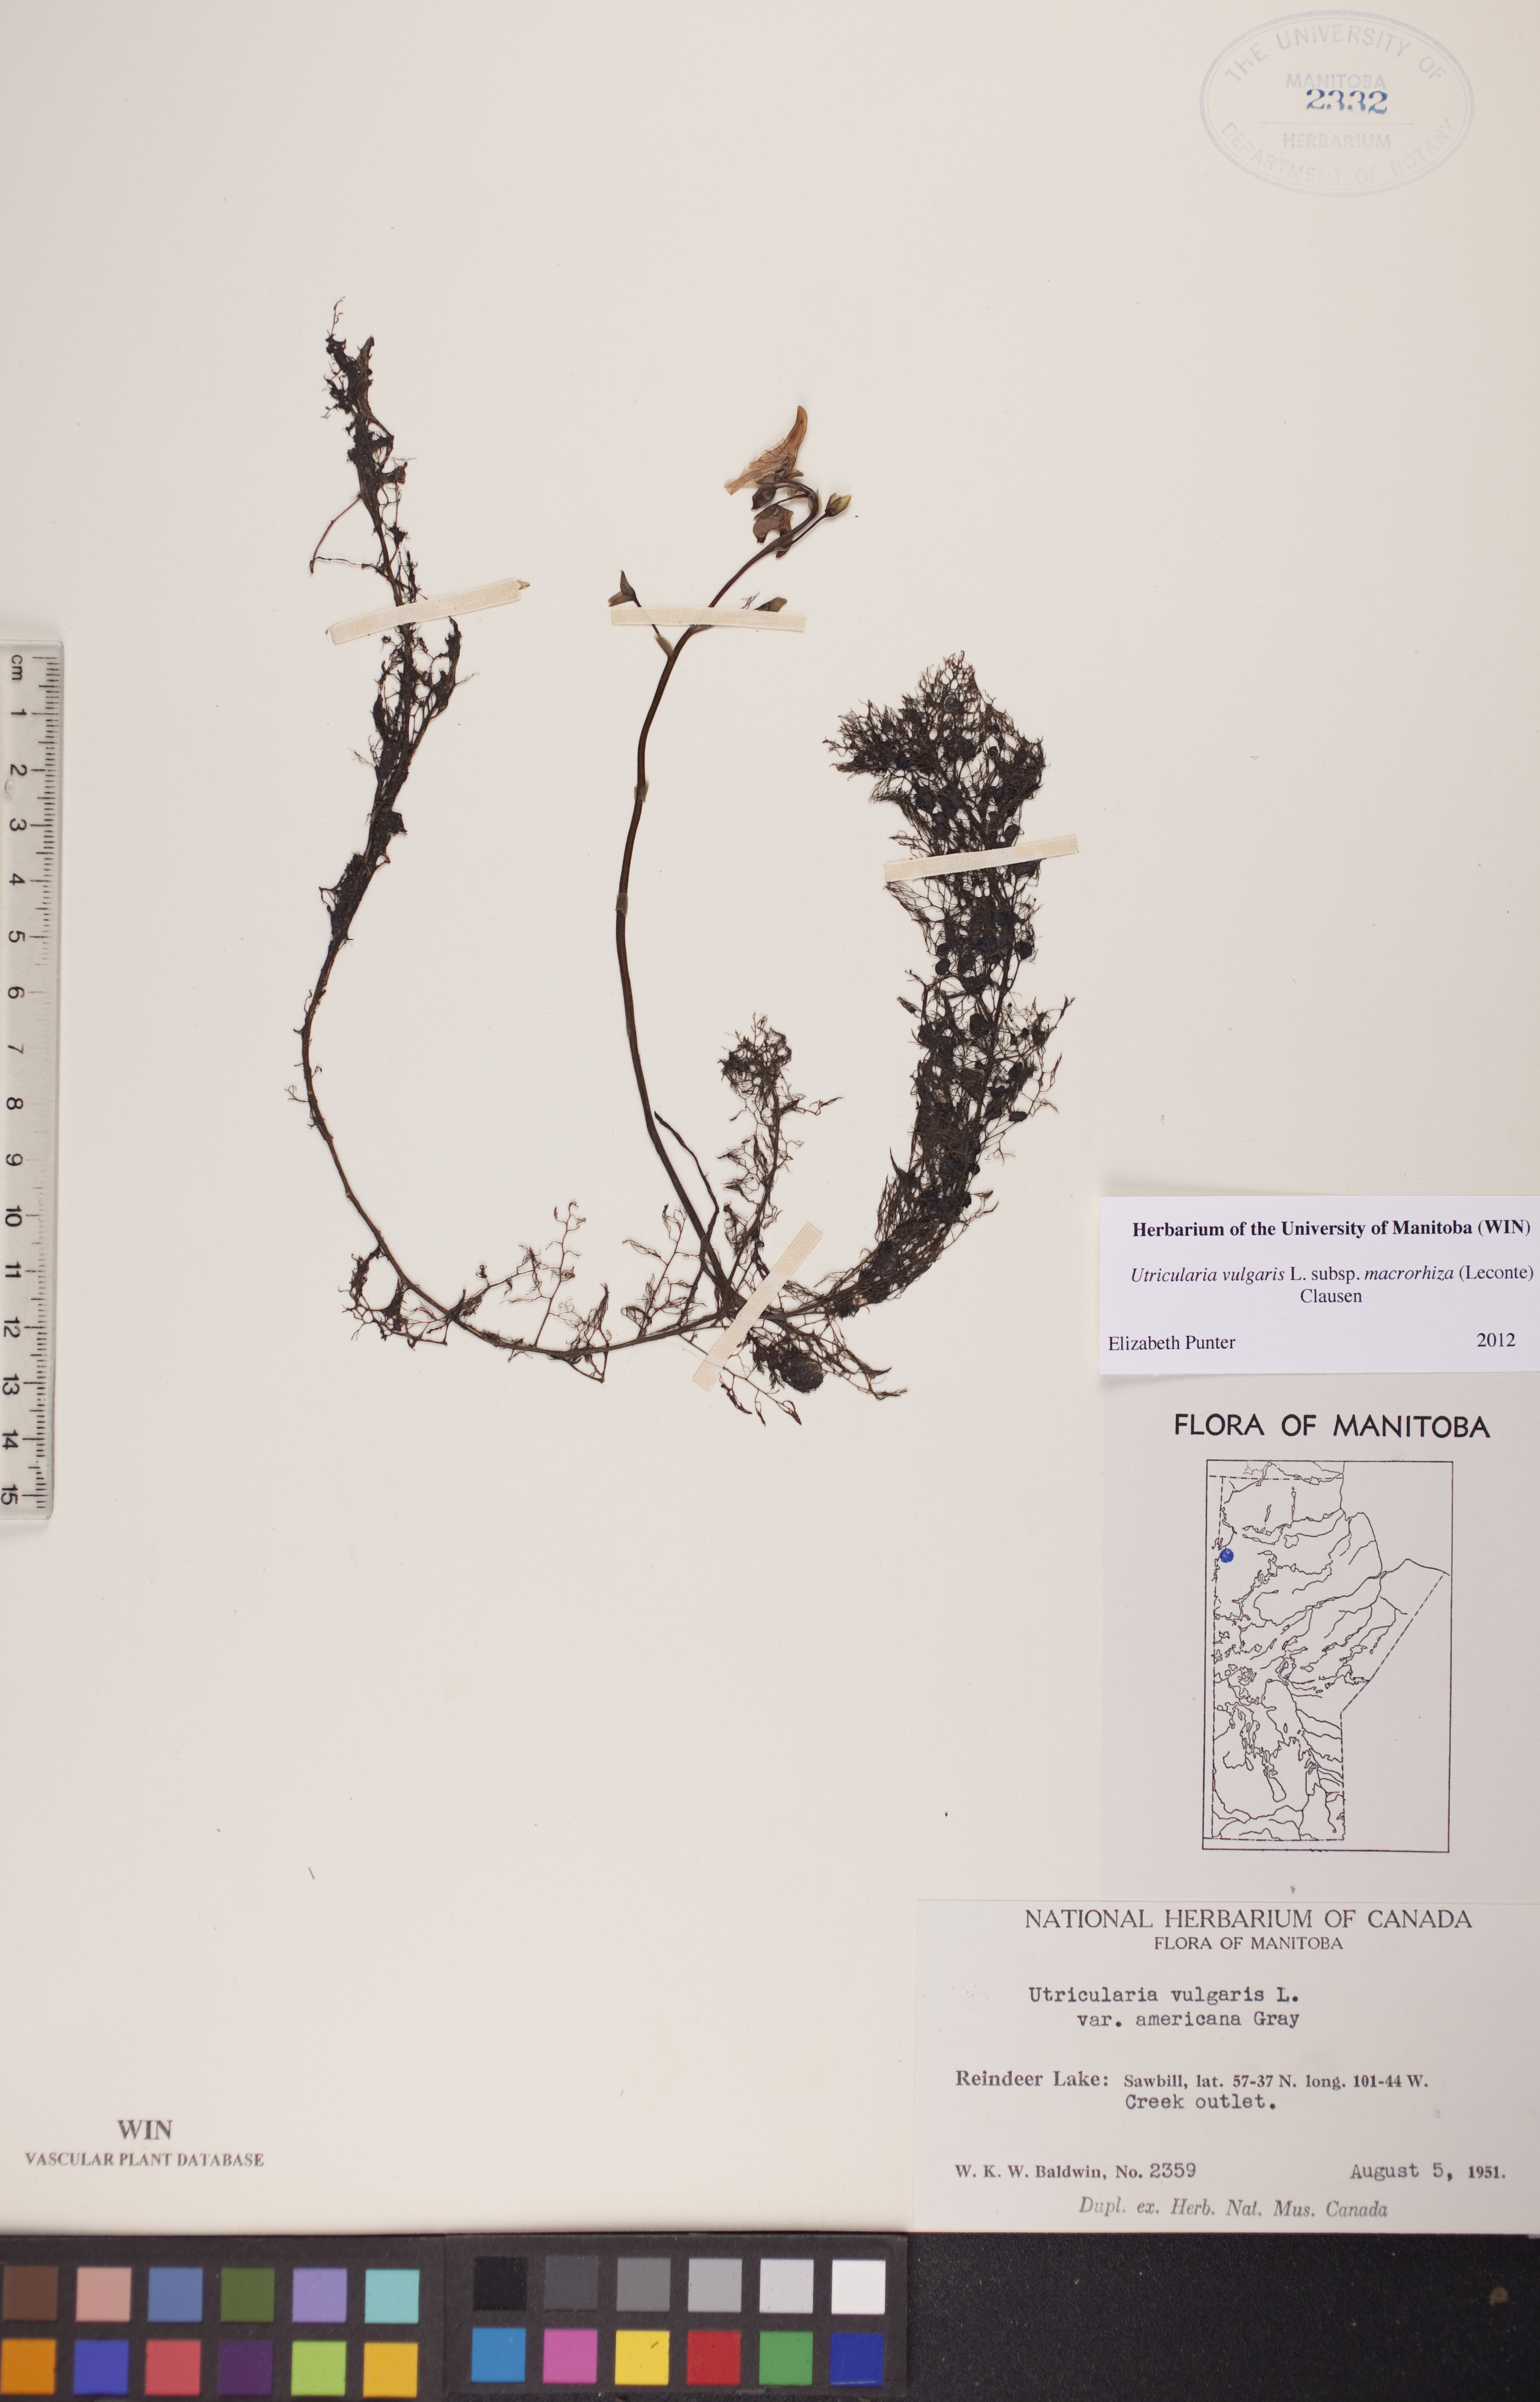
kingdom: Plantae
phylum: Tracheophyta
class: Magnoliopsida
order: Lamiales
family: Lentibulariaceae
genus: Utricularia
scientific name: Utricularia macrorhiza
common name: Common bladderwort
